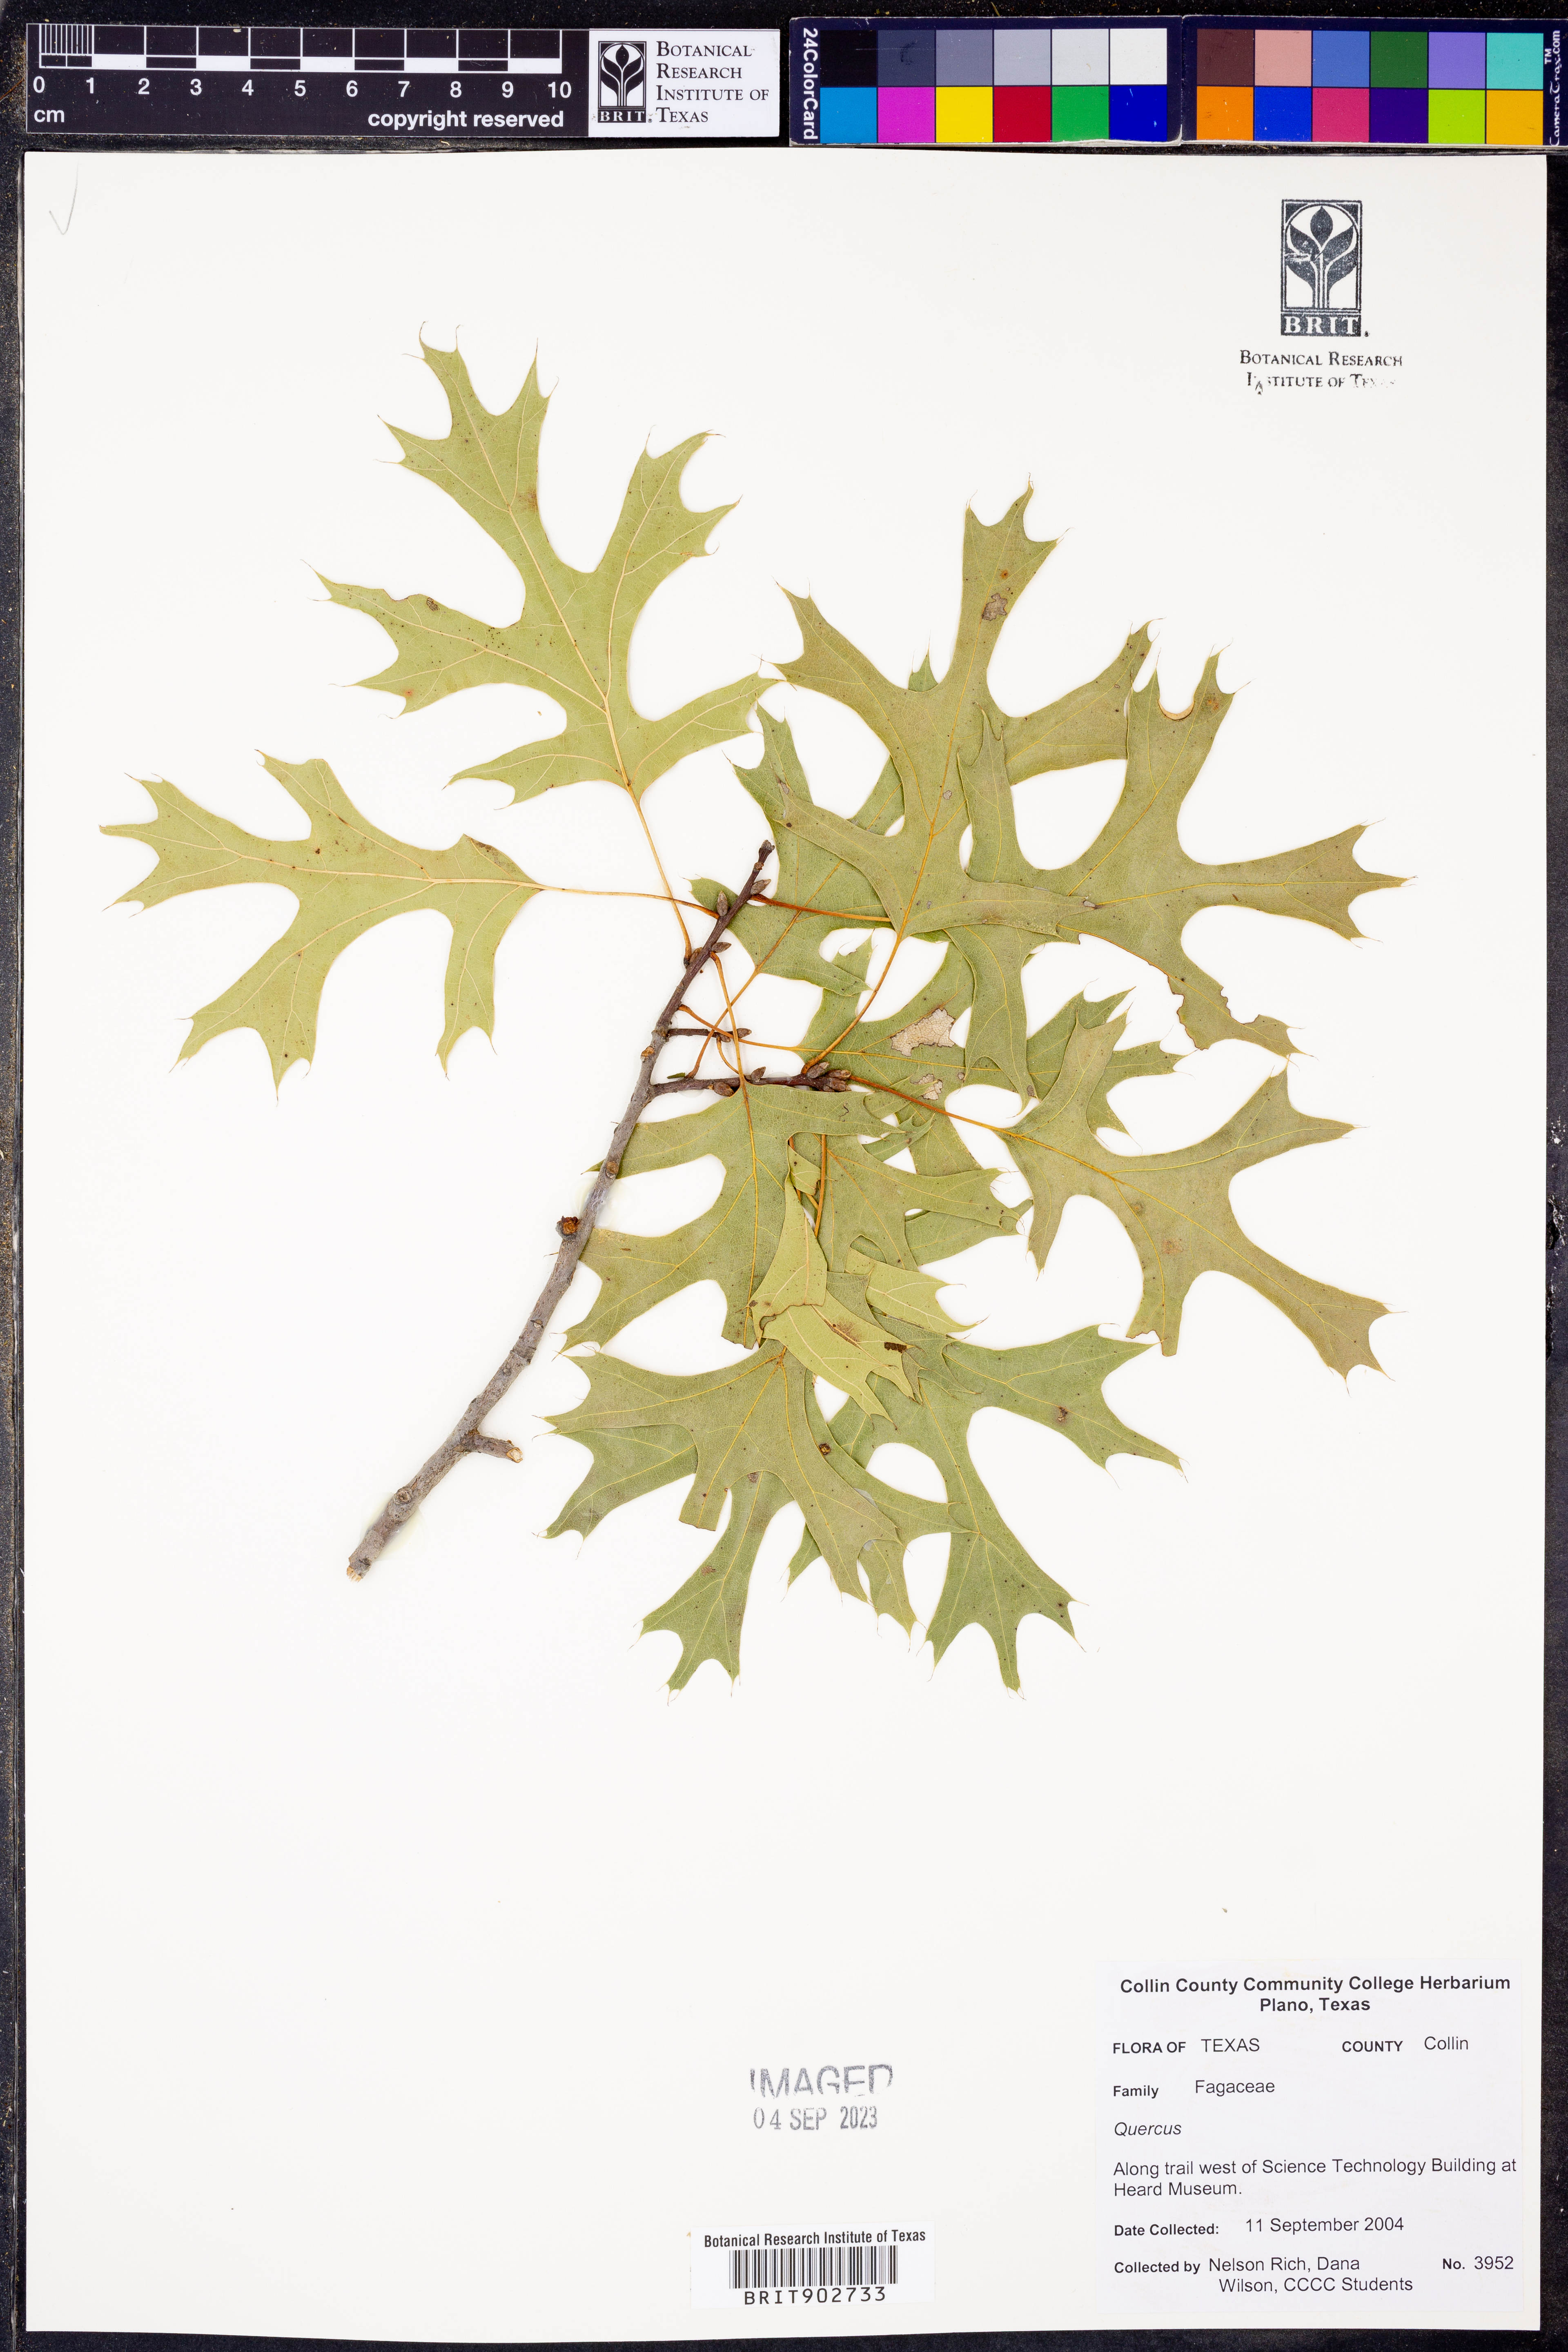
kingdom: Plantae
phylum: Tracheophyta
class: Magnoliopsida
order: Fagales
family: Fagaceae
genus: Quercus
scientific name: Quercus
